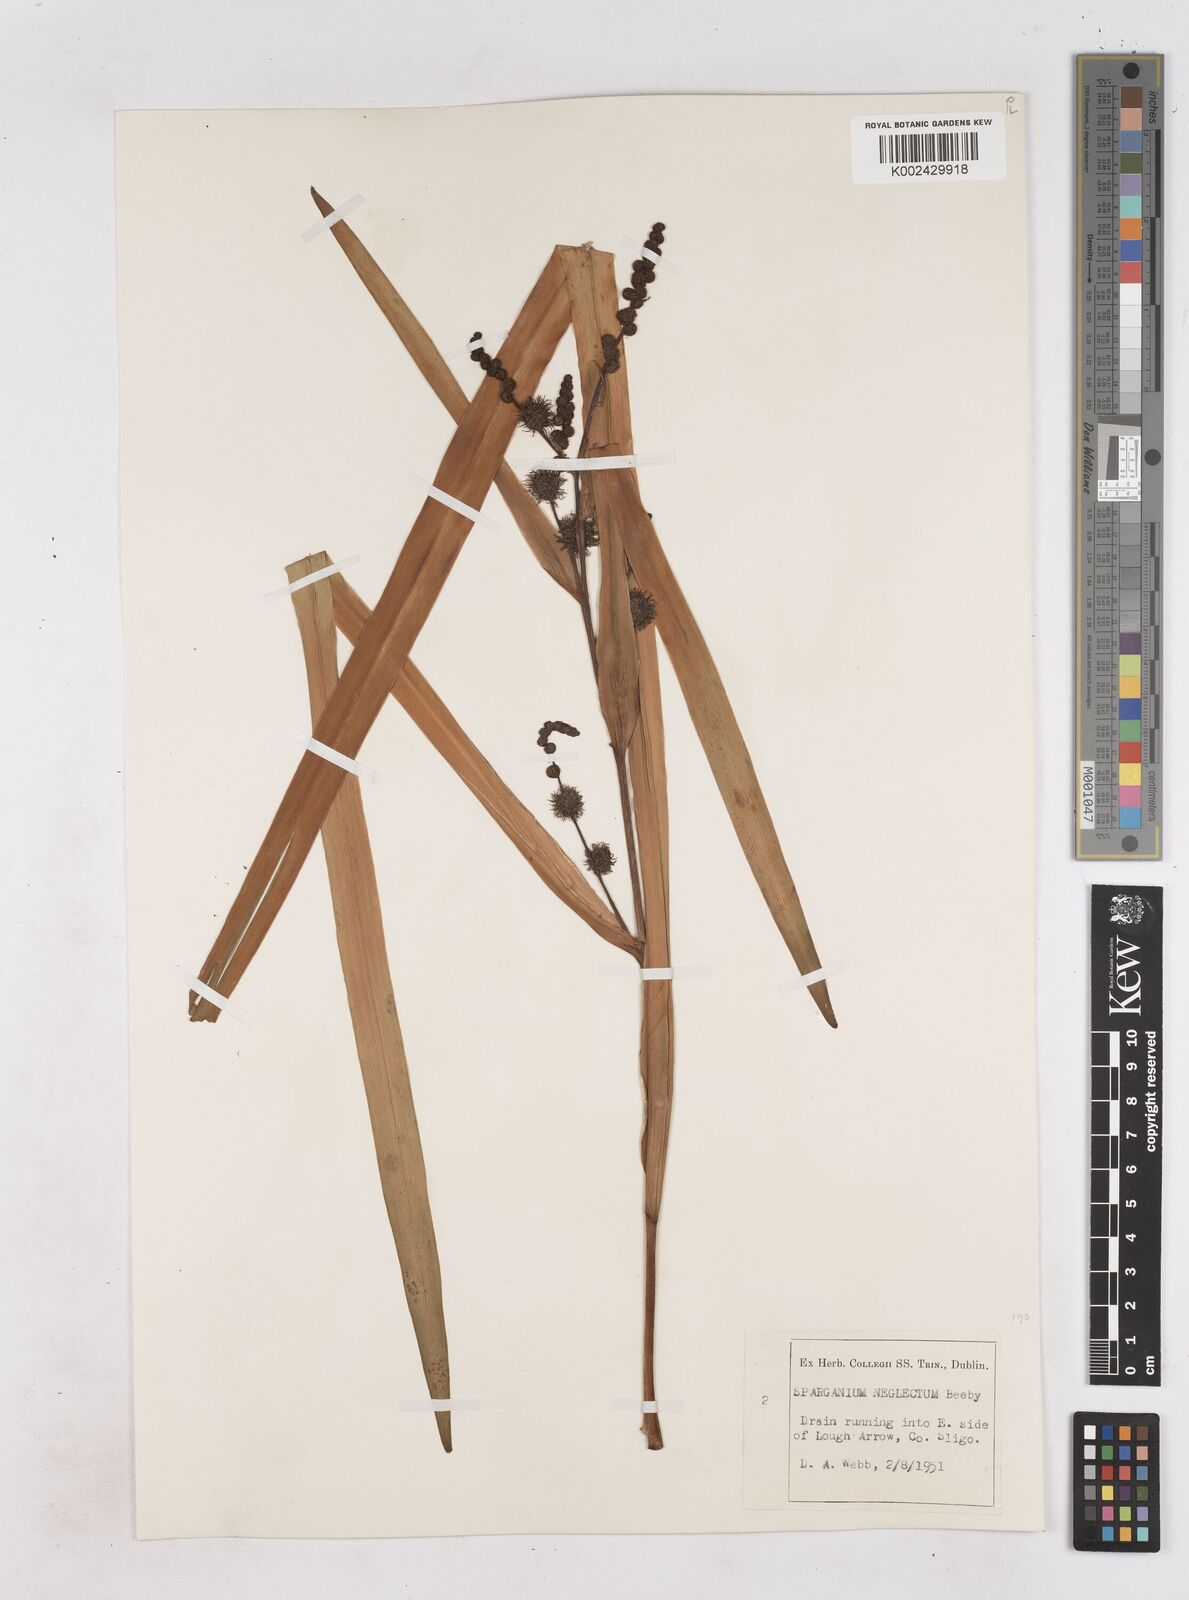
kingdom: Plantae
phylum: Tracheophyta
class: Liliopsida
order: Poales
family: Typhaceae
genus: Sparganium
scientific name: Sparganium erectum
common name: Branched bur-reed
